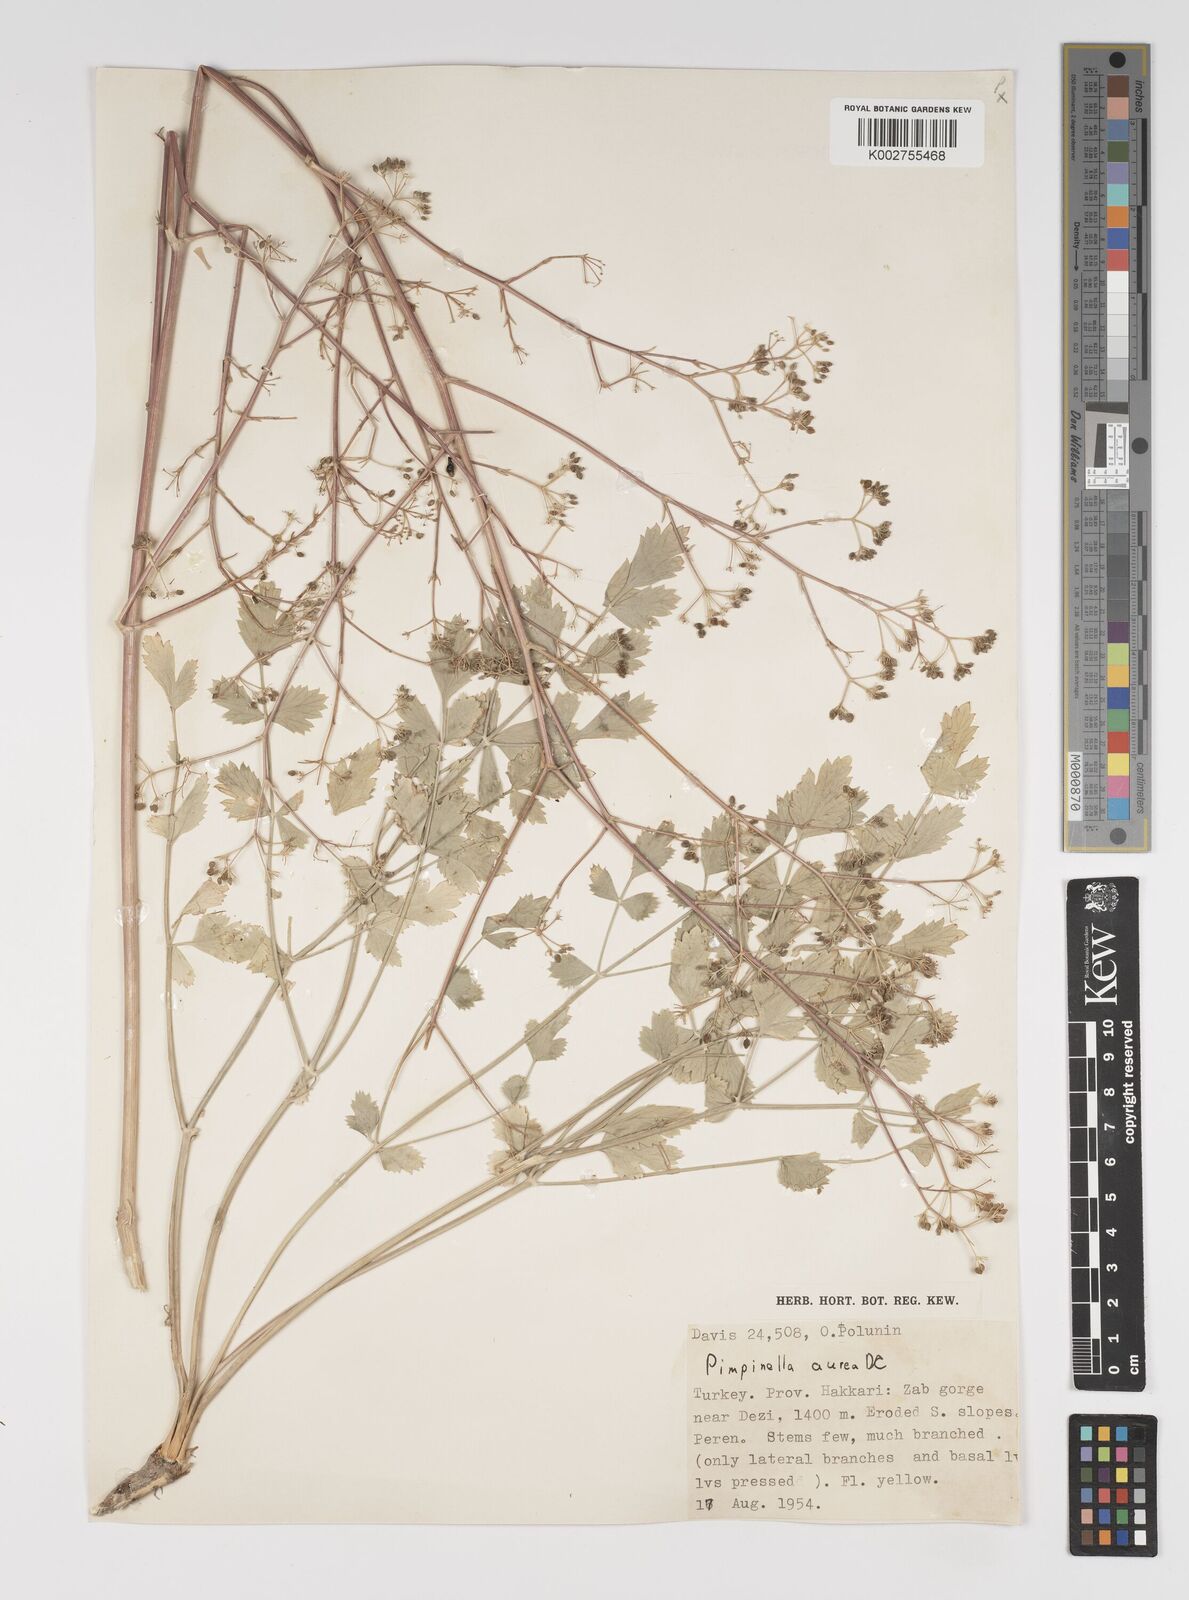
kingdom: Plantae
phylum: Tracheophyta
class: Magnoliopsida
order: Apiales
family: Apiaceae
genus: Pimpinella
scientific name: Pimpinella aurea
